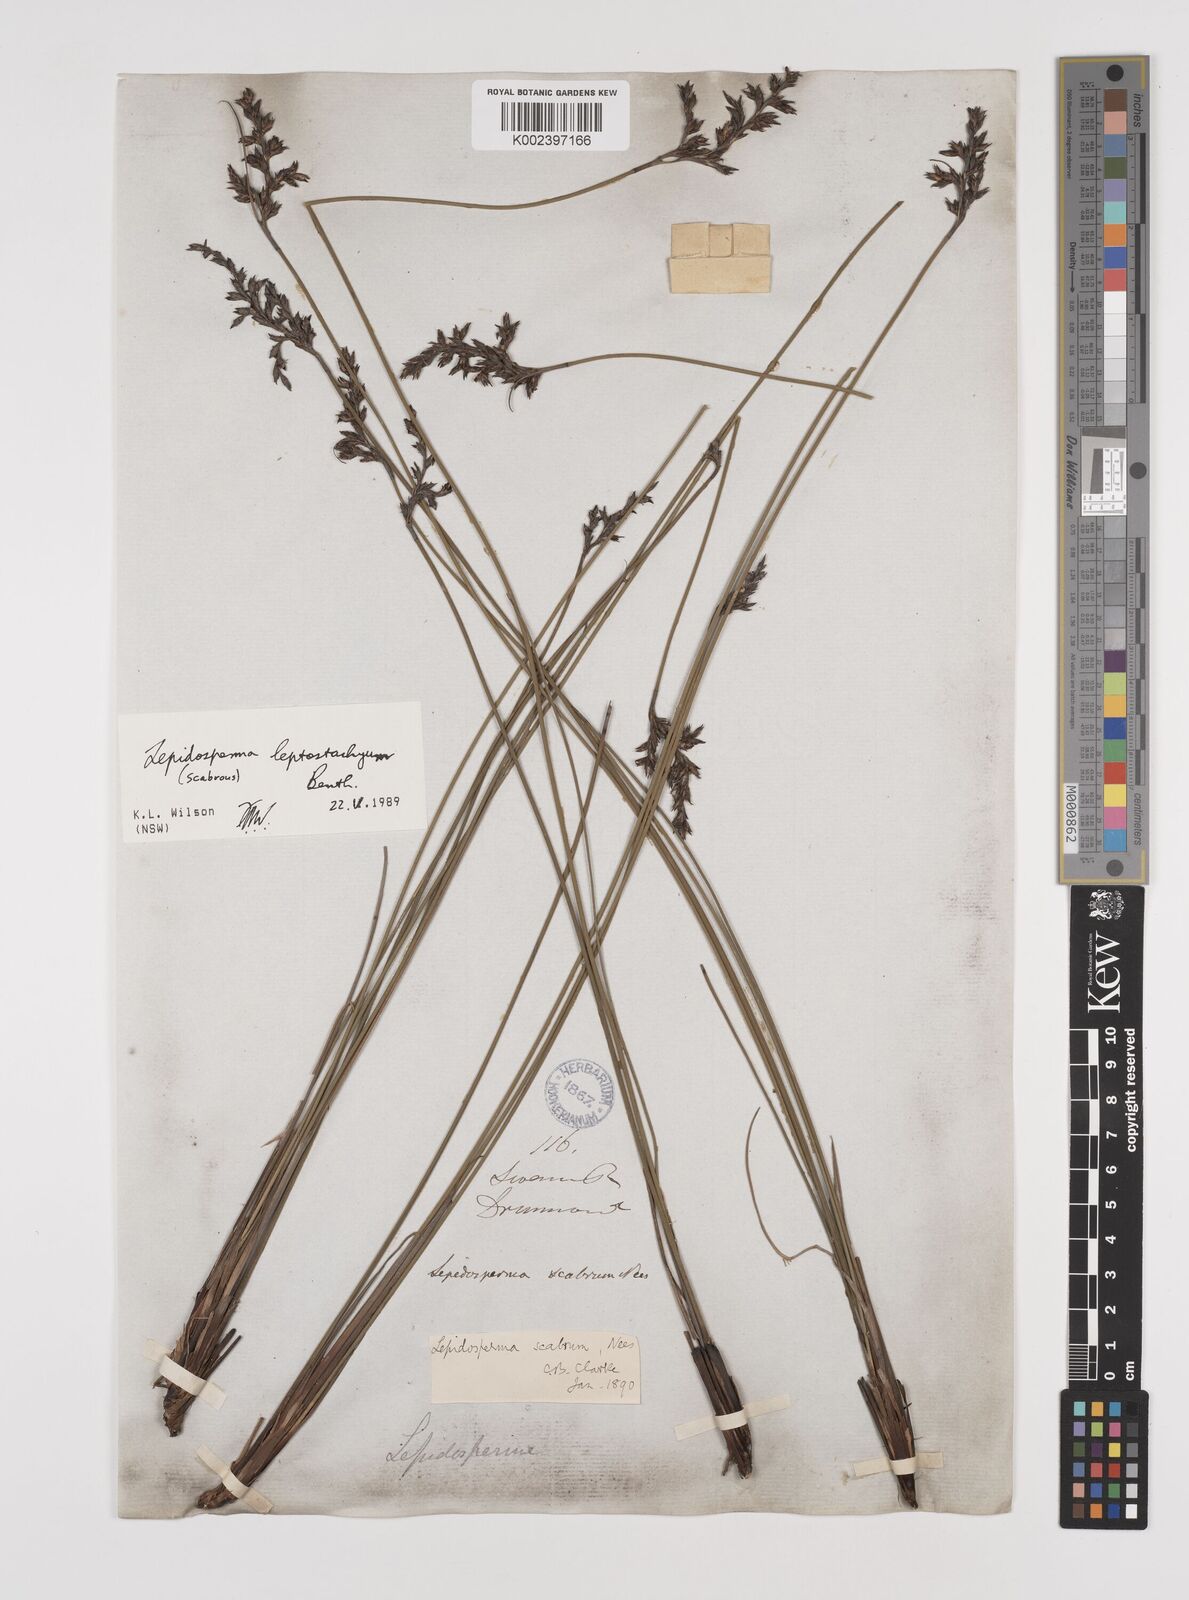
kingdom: Plantae
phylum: Tracheophyta
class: Liliopsida
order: Poales
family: Cyperaceae
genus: Lepidosperma
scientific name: Lepidosperma leptostachyum
